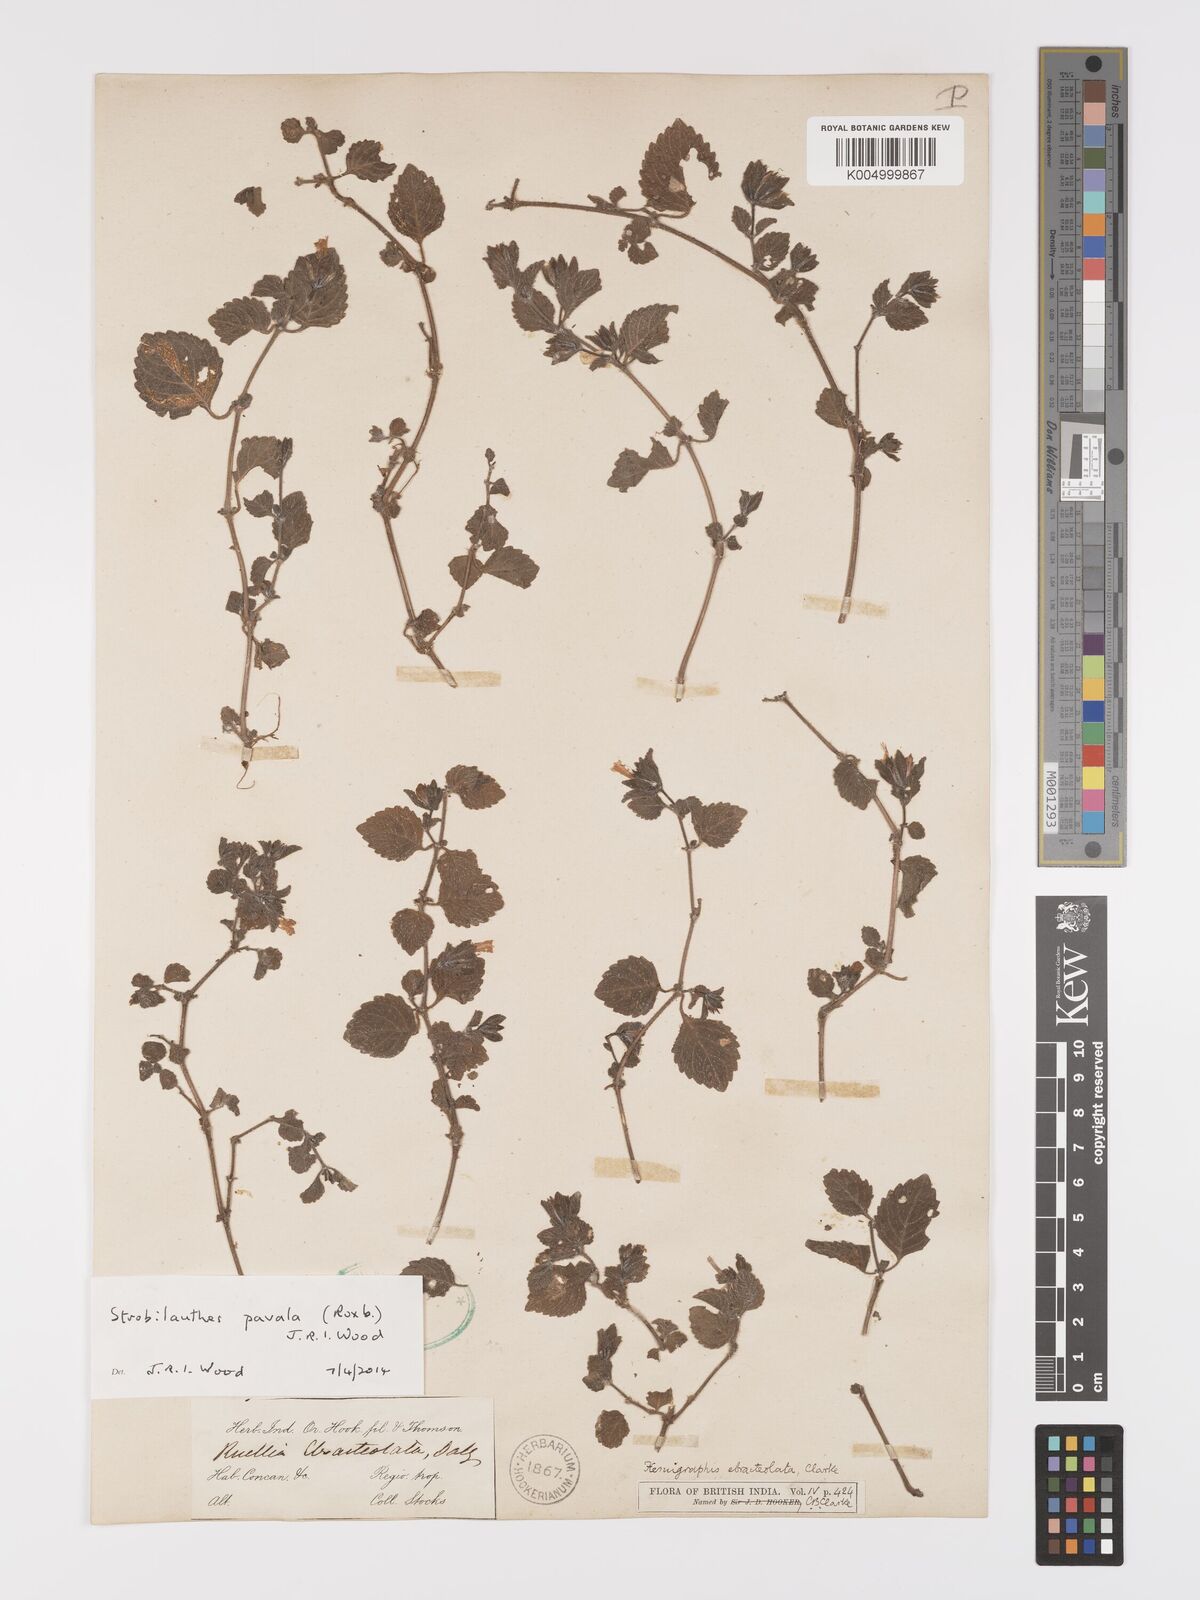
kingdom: Plantae
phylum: Tracheophyta
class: Magnoliopsida
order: Lamiales
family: Acanthaceae
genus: Strobilanthes
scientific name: Strobilanthes pavala
